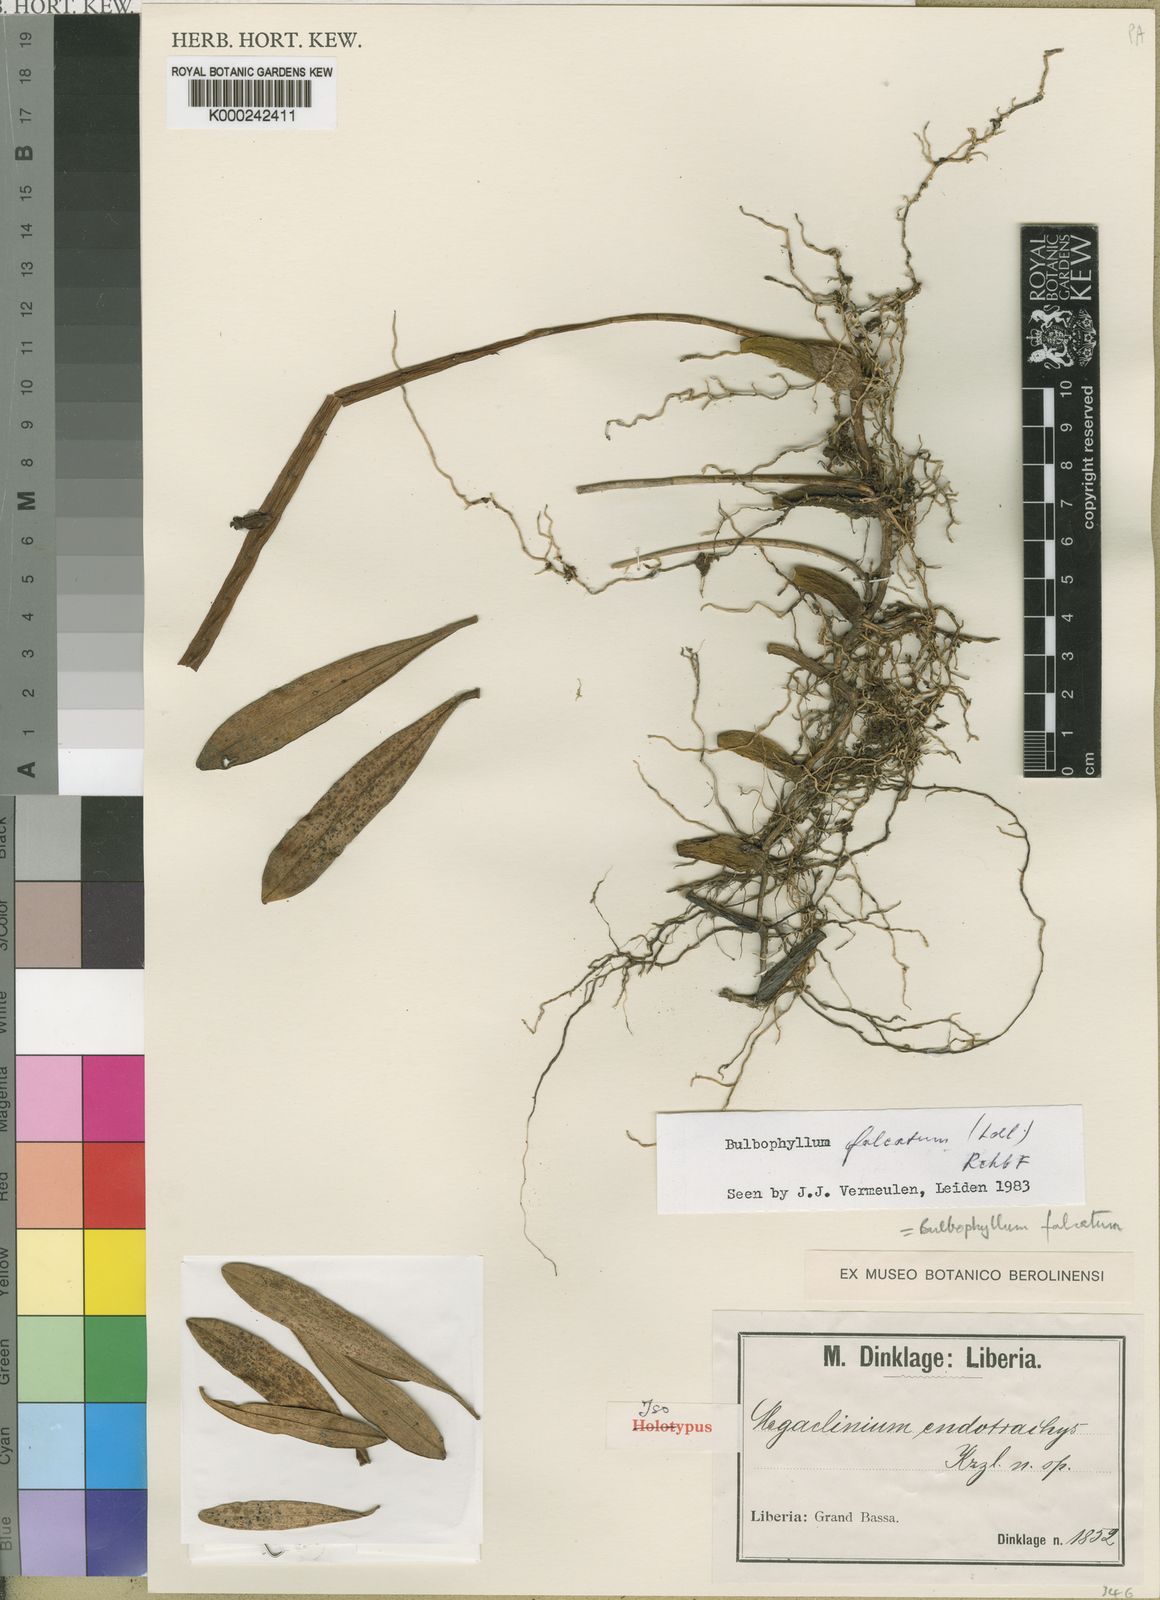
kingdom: Plantae
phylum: Tracheophyta
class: Liliopsida
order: Asparagales
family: Orchidaceae
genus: Bulbophyllum
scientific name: Bulbophyllum falcatum
